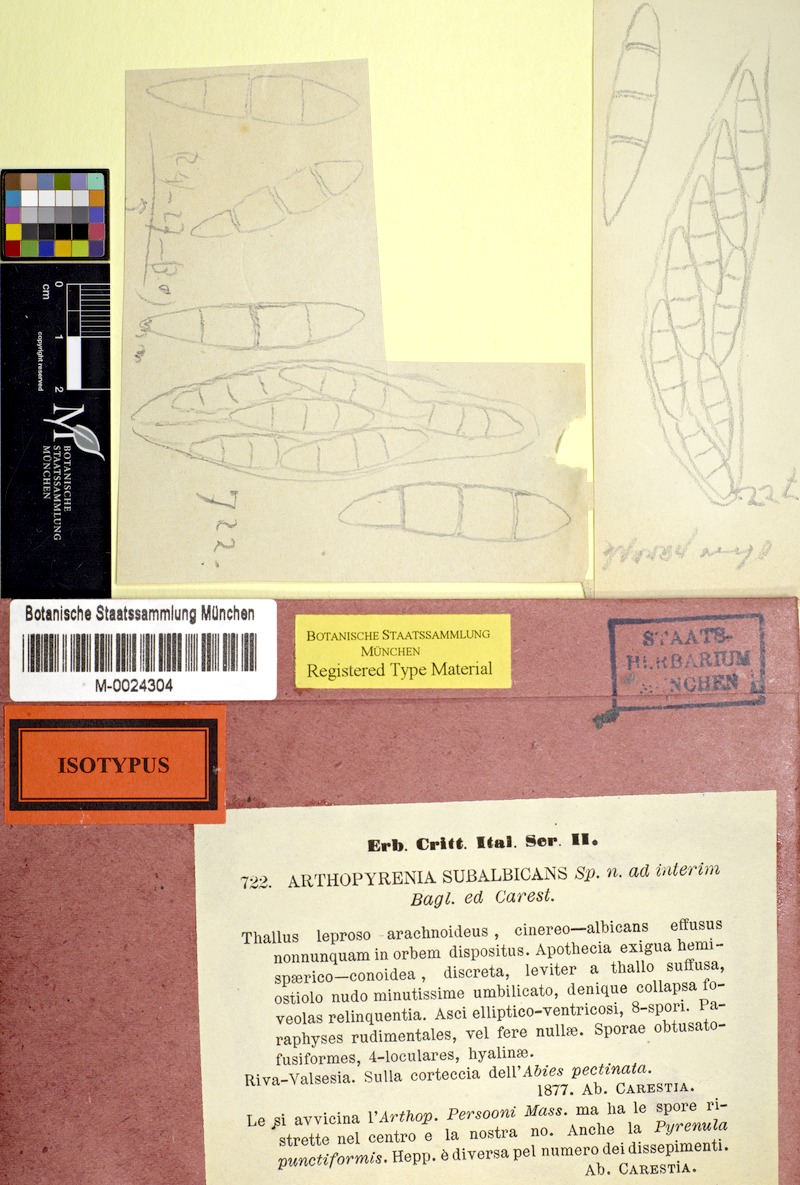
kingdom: Fungi
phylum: Ascomycota
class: Eurotiomycetes
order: Verrucariales
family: Verrucariaceae
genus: Verrucaria
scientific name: Verrucaria murina
